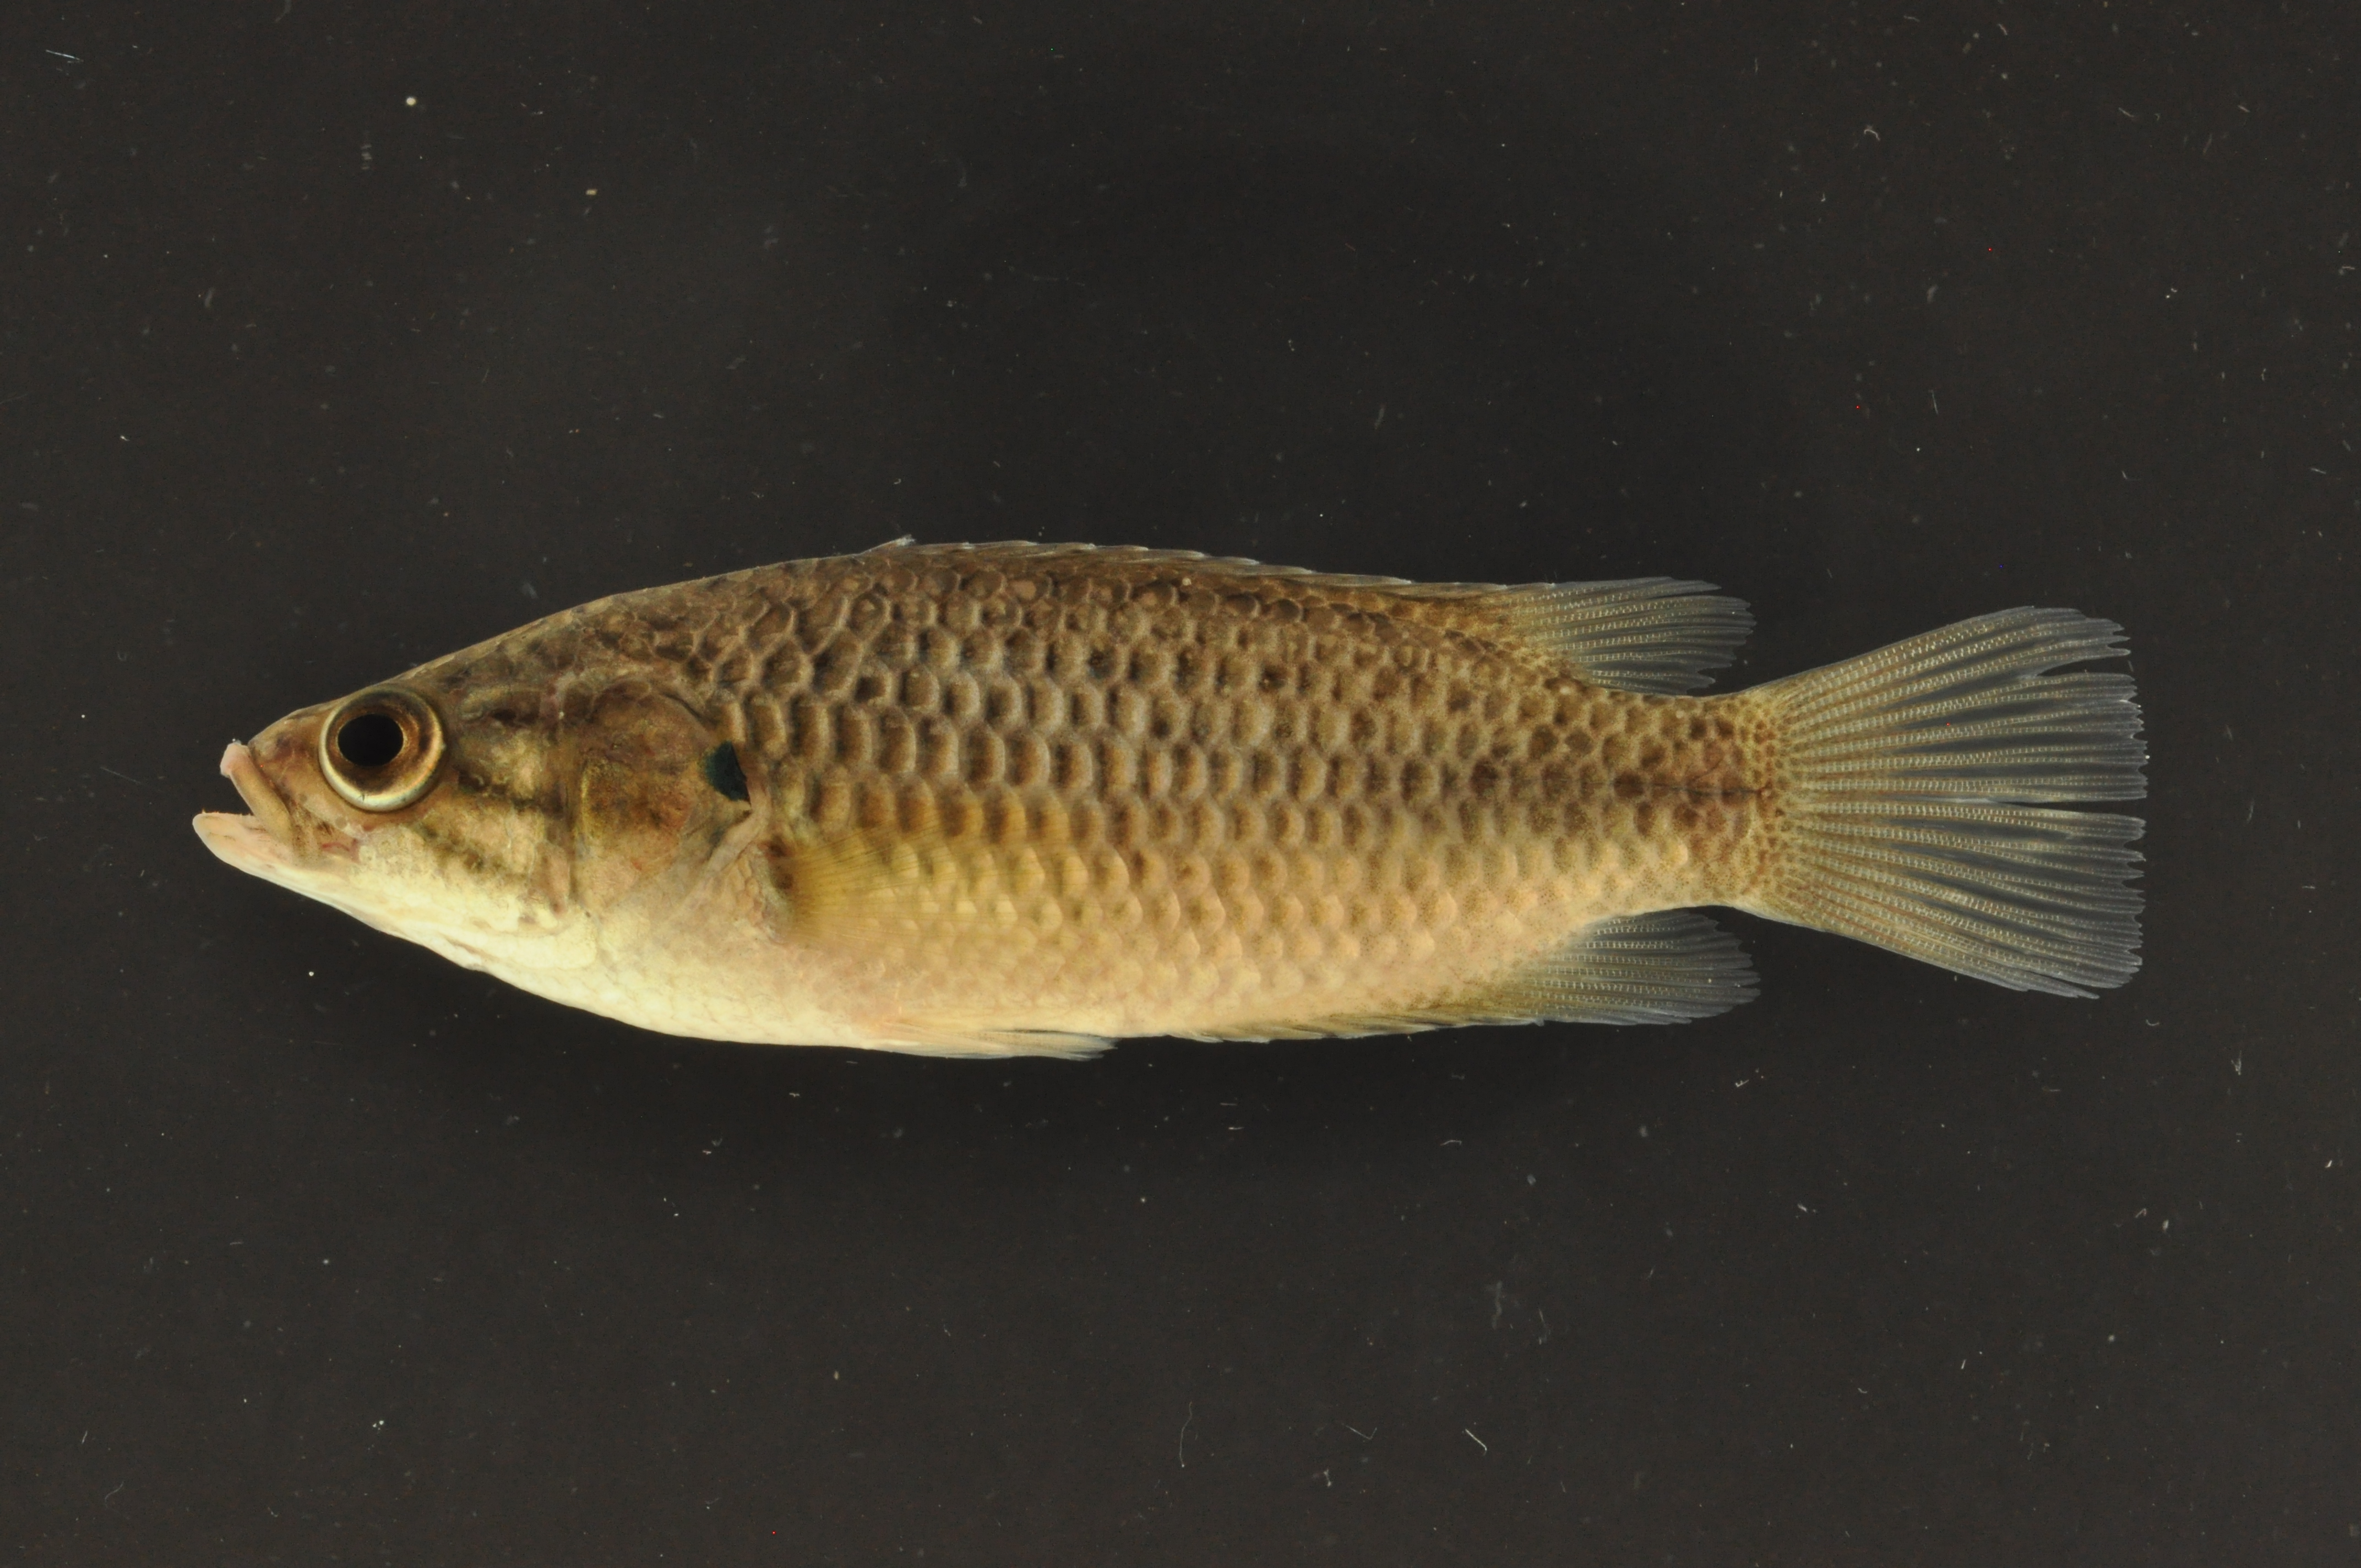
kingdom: Animalia
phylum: Chordata
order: Perciformes
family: Anabantidae
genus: Sandelia
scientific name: Sandelia capensis
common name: Cape kurper
